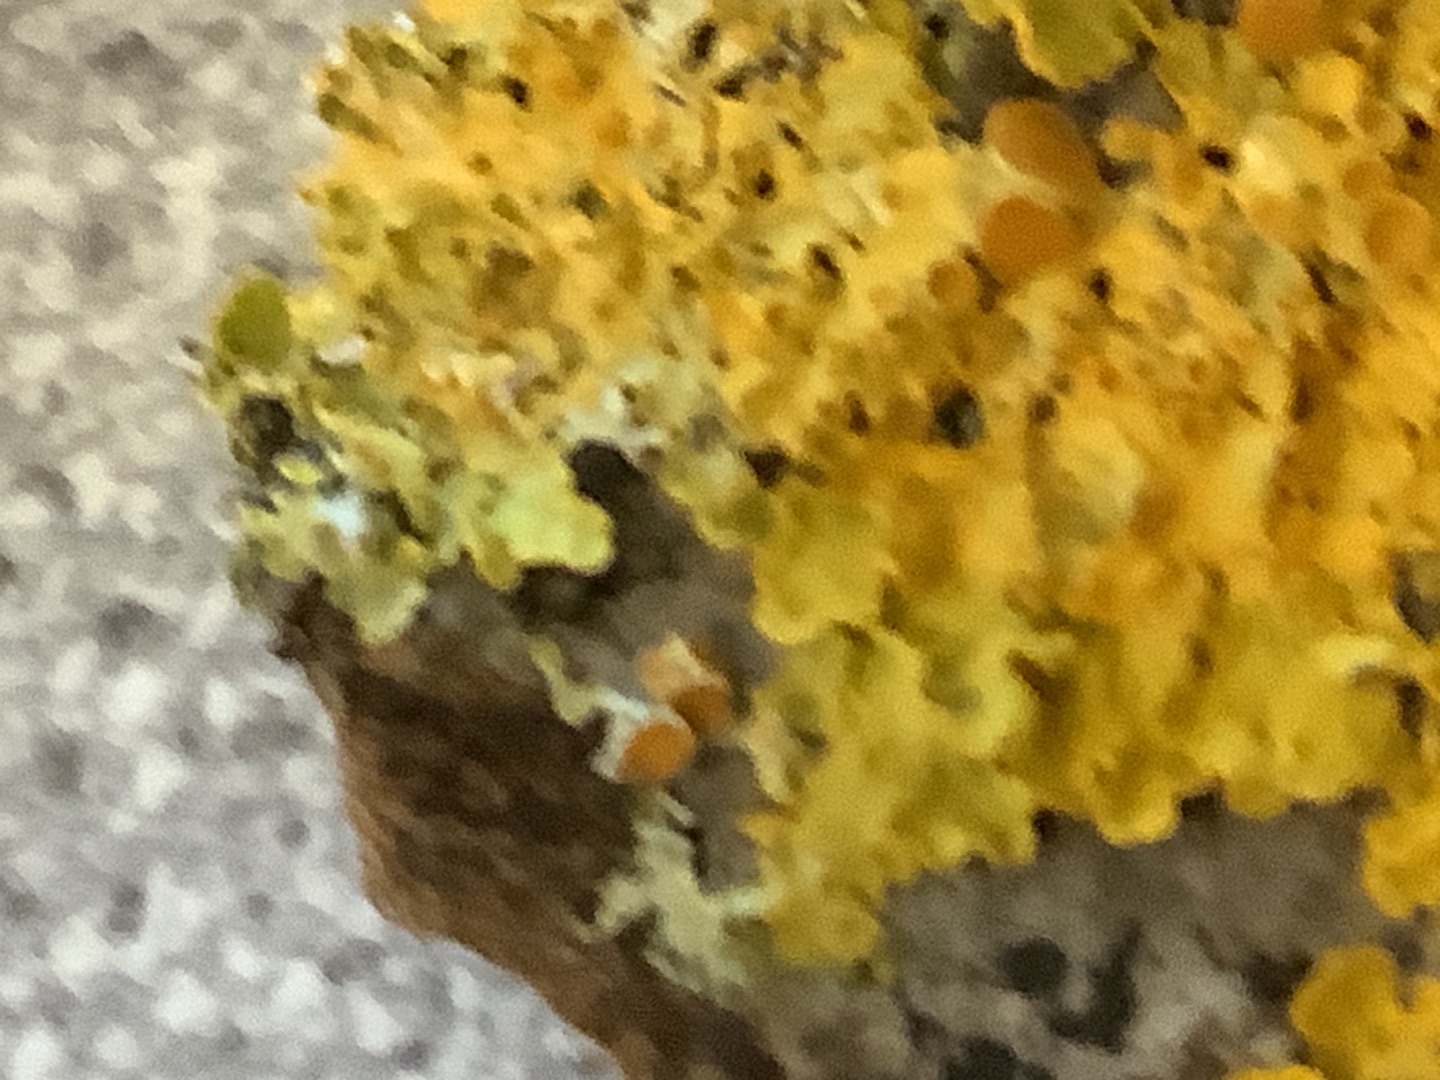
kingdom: Fungi
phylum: Ascomycota
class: Lecanoromycetes
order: Teloschistales
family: Teloschistaceae
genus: Xanthoria
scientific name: Xanthoria parietina
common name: Almindelig væggelav
